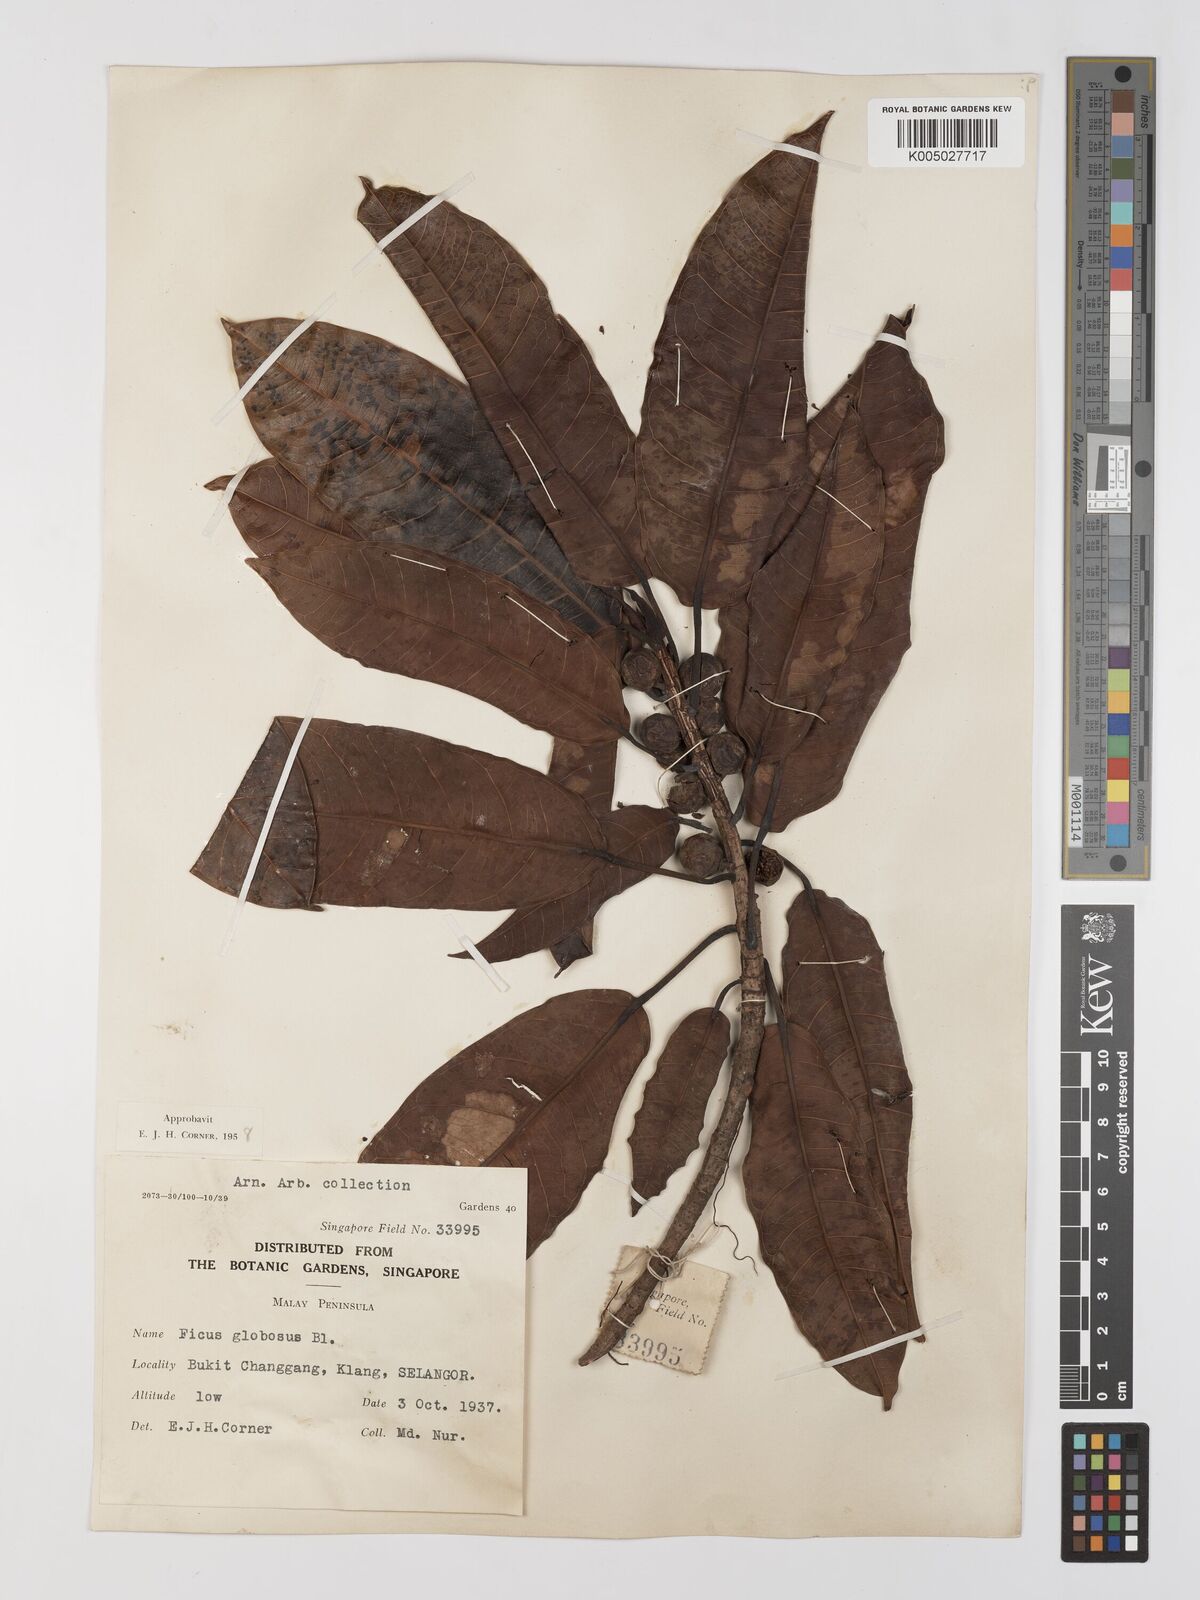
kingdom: Plantae
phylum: Tracheophyta
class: Magnoliopsida
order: Rosales
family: Moraceae
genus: Ficus
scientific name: Ficus
